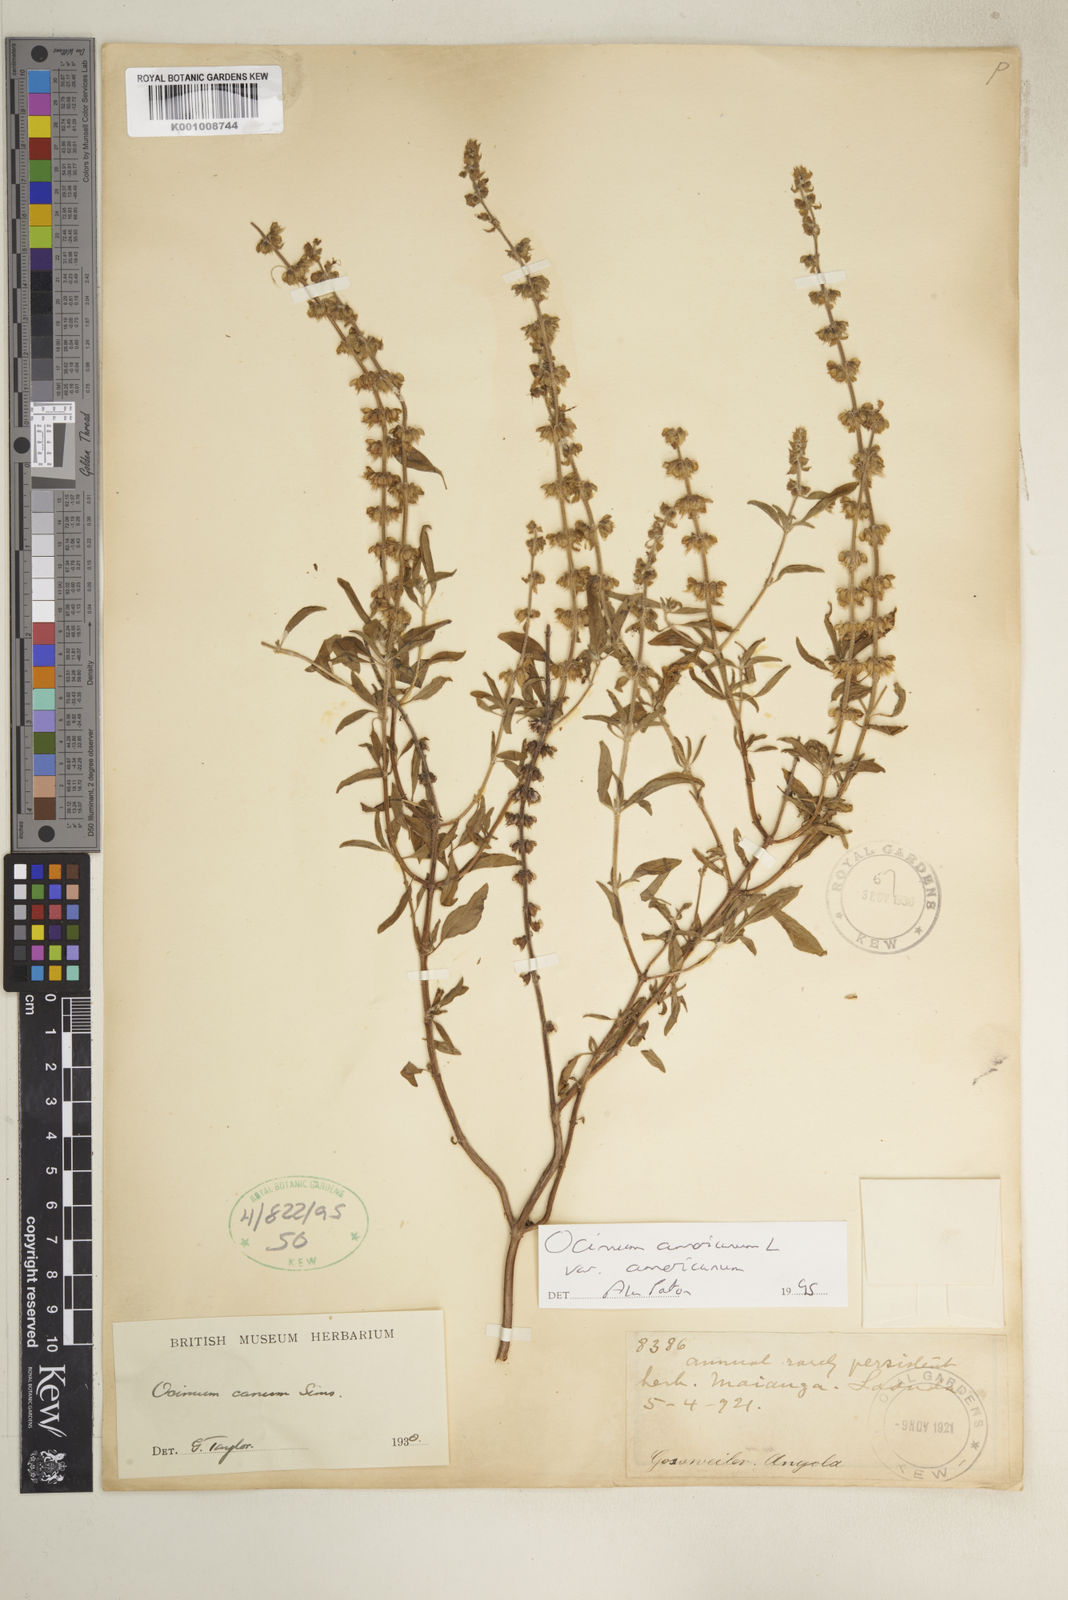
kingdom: Plantae
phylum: Tracheophyta
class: Magnoliopsida
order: Lamiales
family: Lamiaceae
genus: Ocimum
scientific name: Ocimum americanum
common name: American basil
